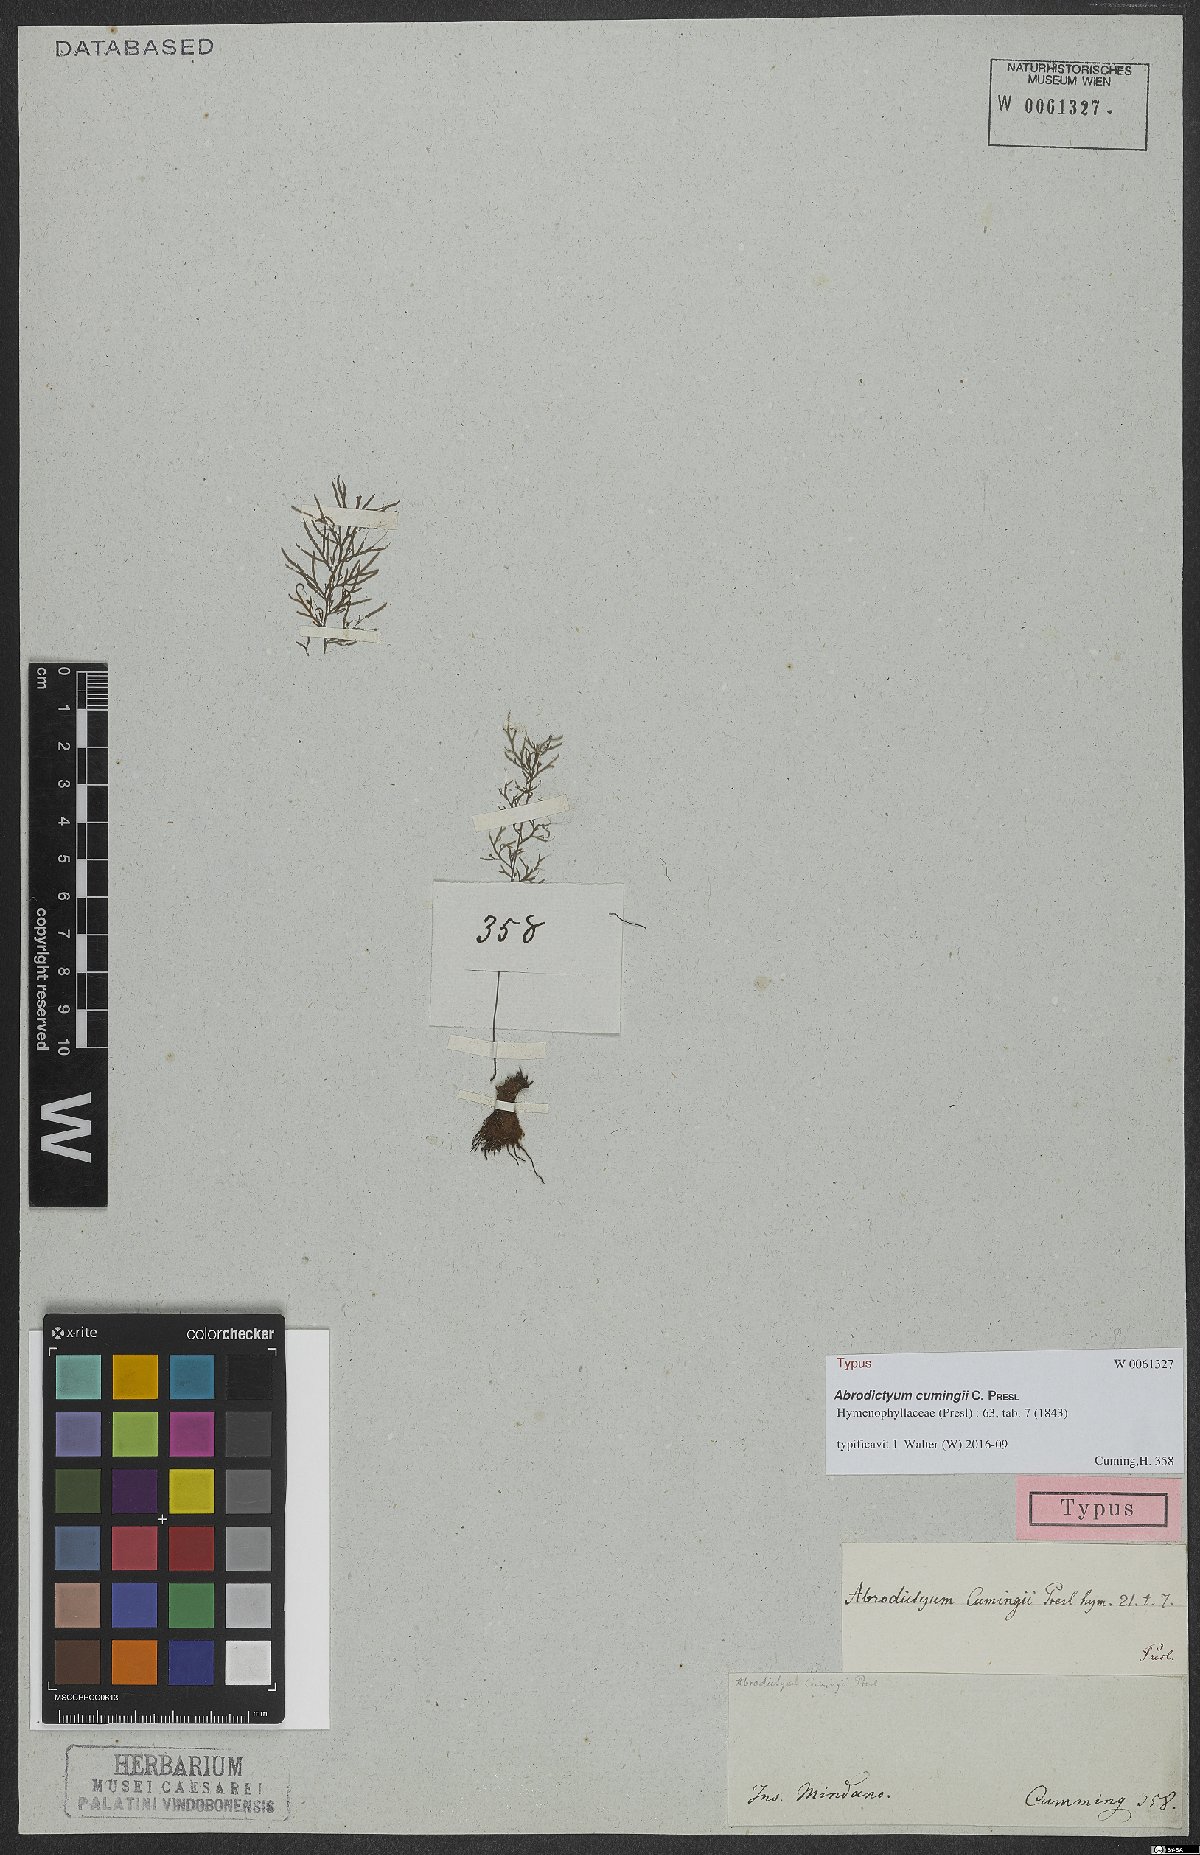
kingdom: Plantae
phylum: Tracheophyta
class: Polypodiopsida
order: Hymenophyllales
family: Hymenophyllaceae
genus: Abrodictyum
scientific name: Abrodictyum cumingii
